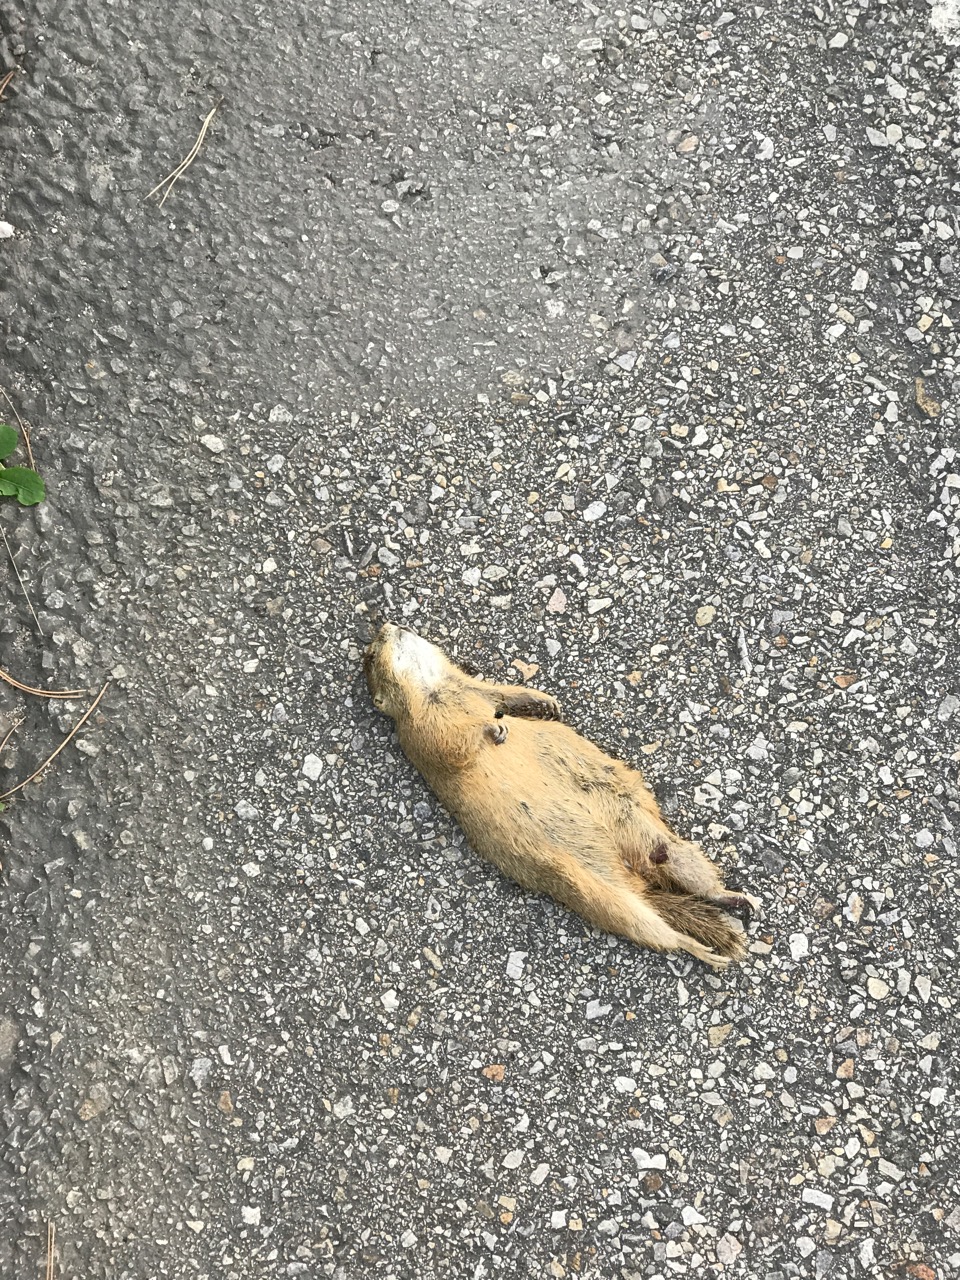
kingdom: Animalia
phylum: Chordata
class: Mammalia
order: Rodentia
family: Sciuridae
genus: Spermophilus
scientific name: Spermophilus citellus
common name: European ground squirrel
